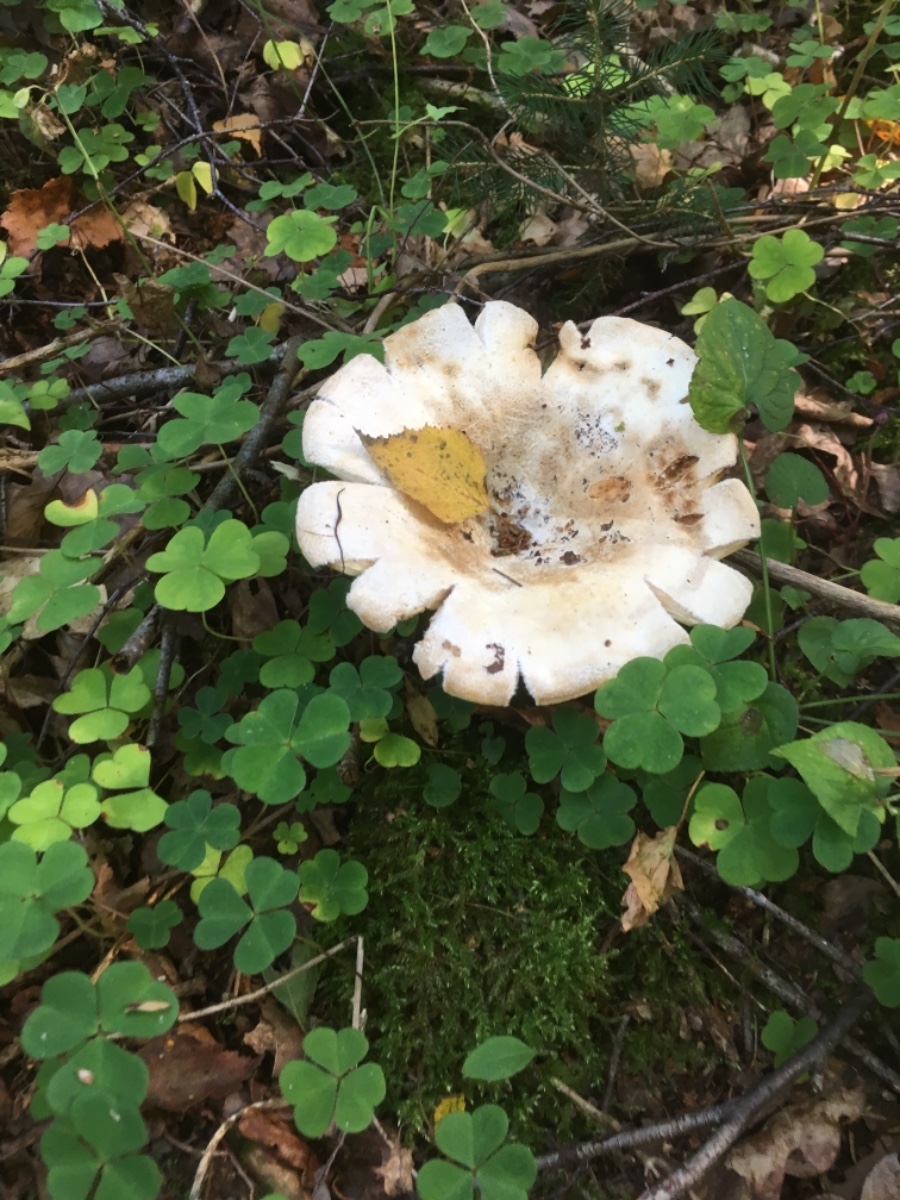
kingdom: Fungi
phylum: Basidiomycota
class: Agaricomycetes
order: Agaricales
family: Tricholomataceae
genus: Aspropaxillus
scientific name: Aspropaxillus giganteus
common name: kæmpe-tragtridderhat
